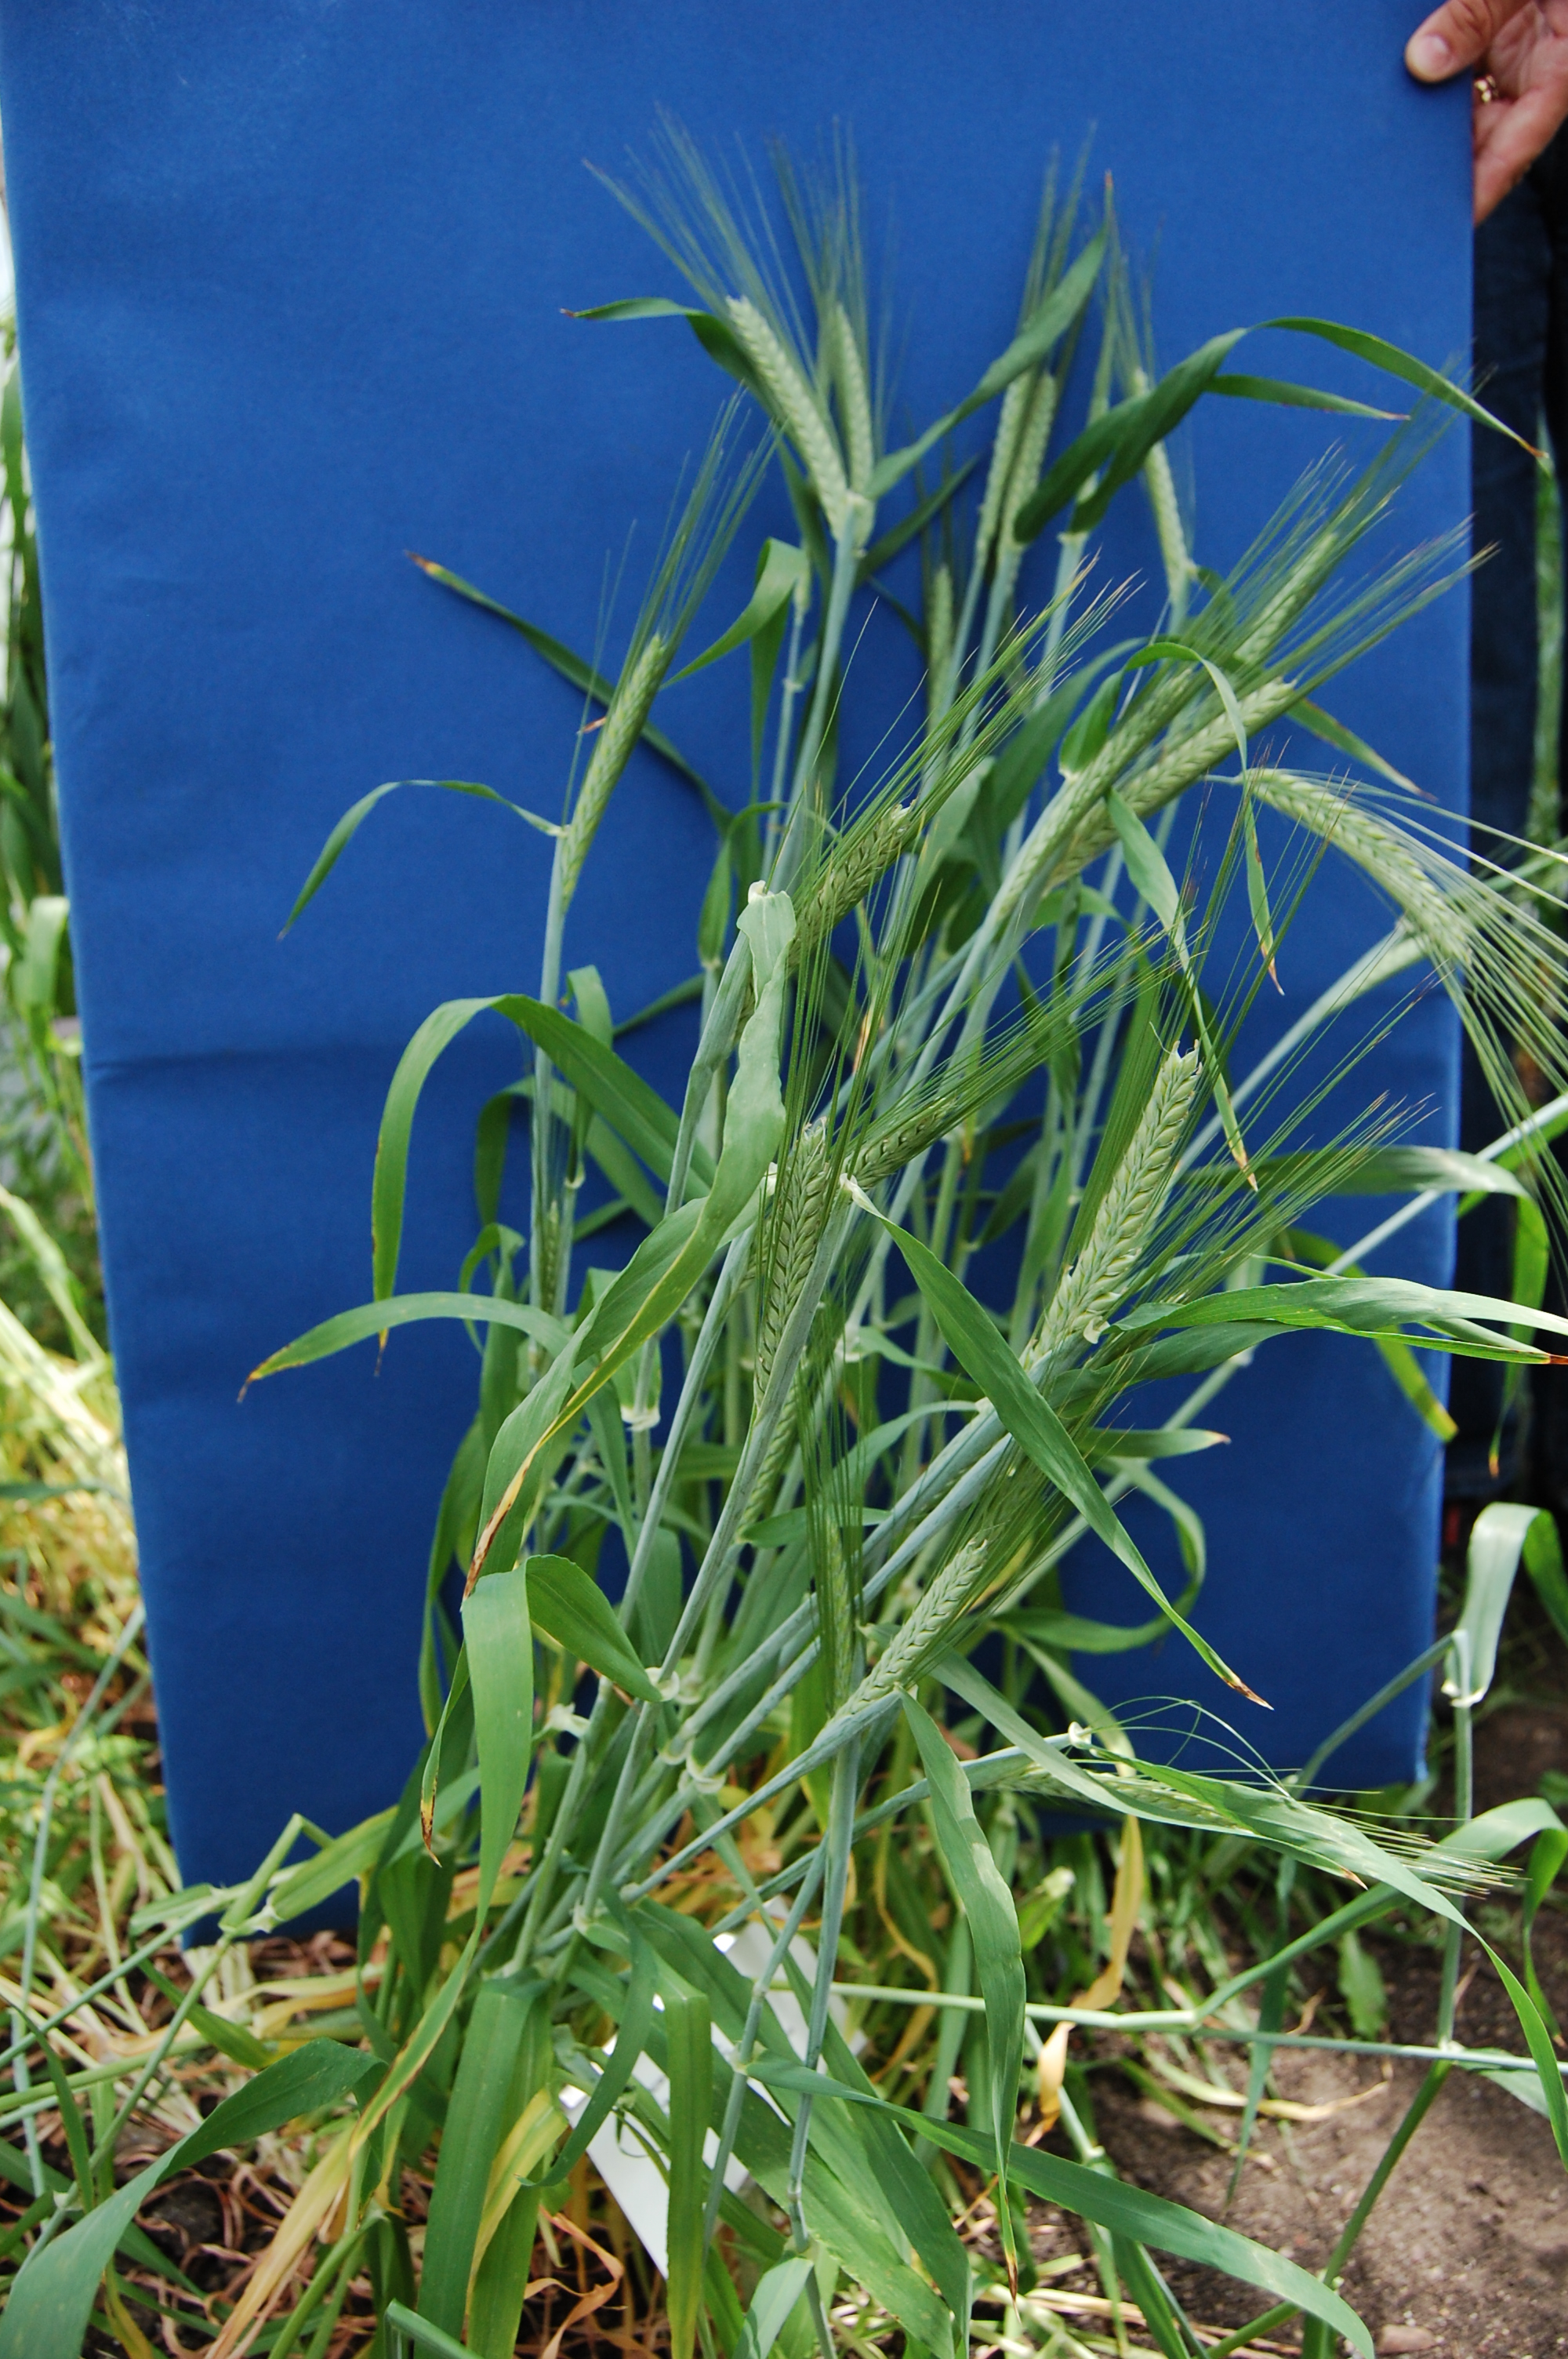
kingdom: Plantae
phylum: Tracheophyta
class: Liliopsida
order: Poales
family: Poaceae
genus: Hordeum
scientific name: Hordeum vulgare
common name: Common barley
